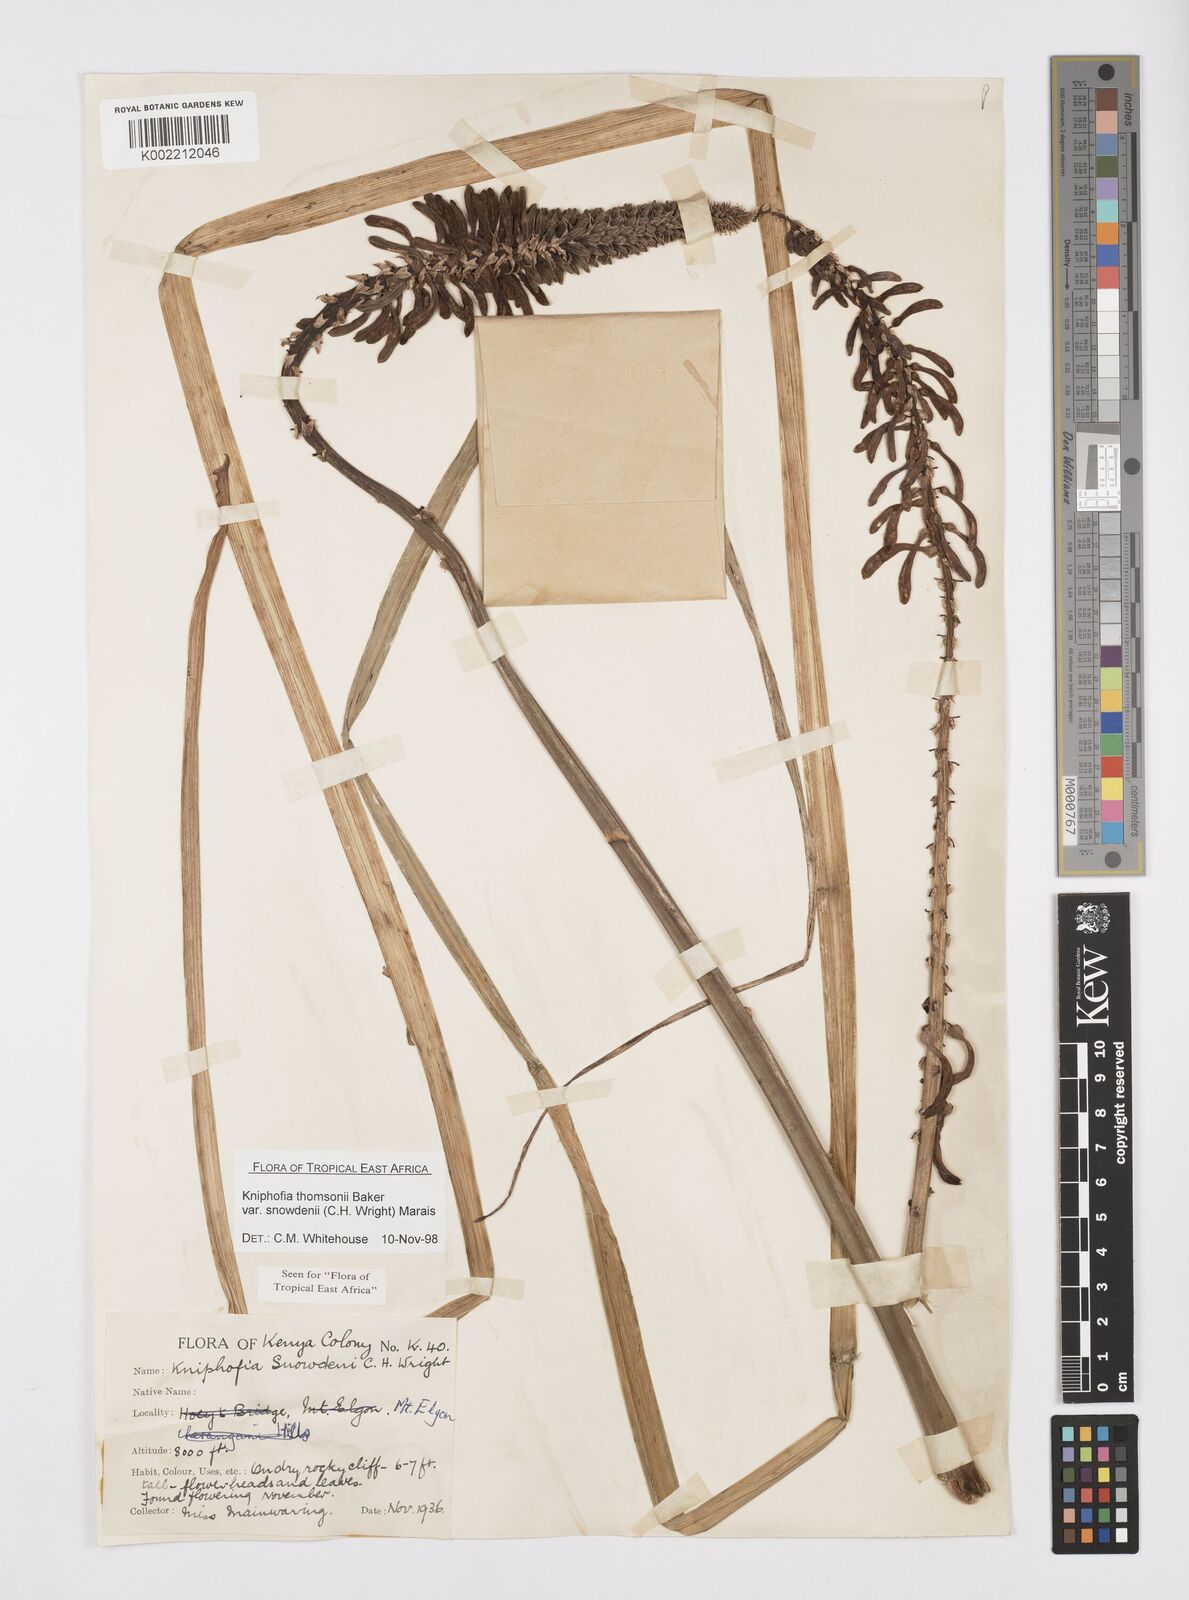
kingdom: Plantae
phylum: Tracheophyta
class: Liliopsida
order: Asparagales
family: Asphodelaceae
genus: Kniphofia
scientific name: Kniphofia
